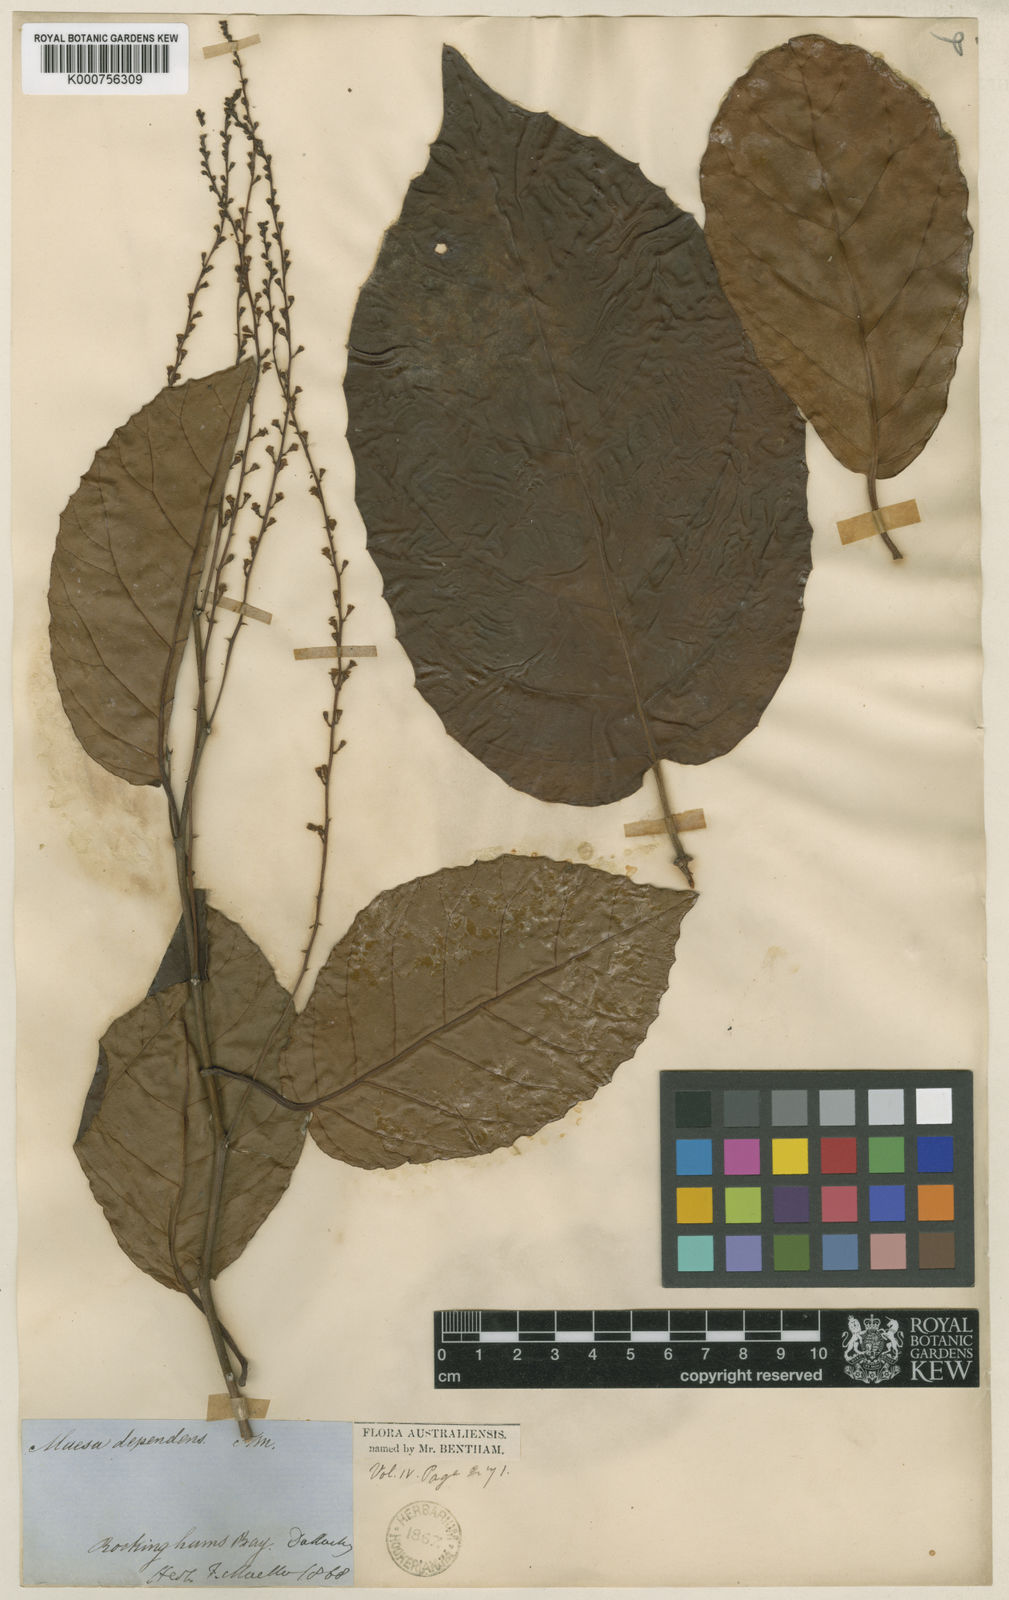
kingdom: Plantae
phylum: Tracheophyta
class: Magnoliopsida
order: Ericales
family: Primulaceae
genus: Maesa
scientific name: Maesa dependens
